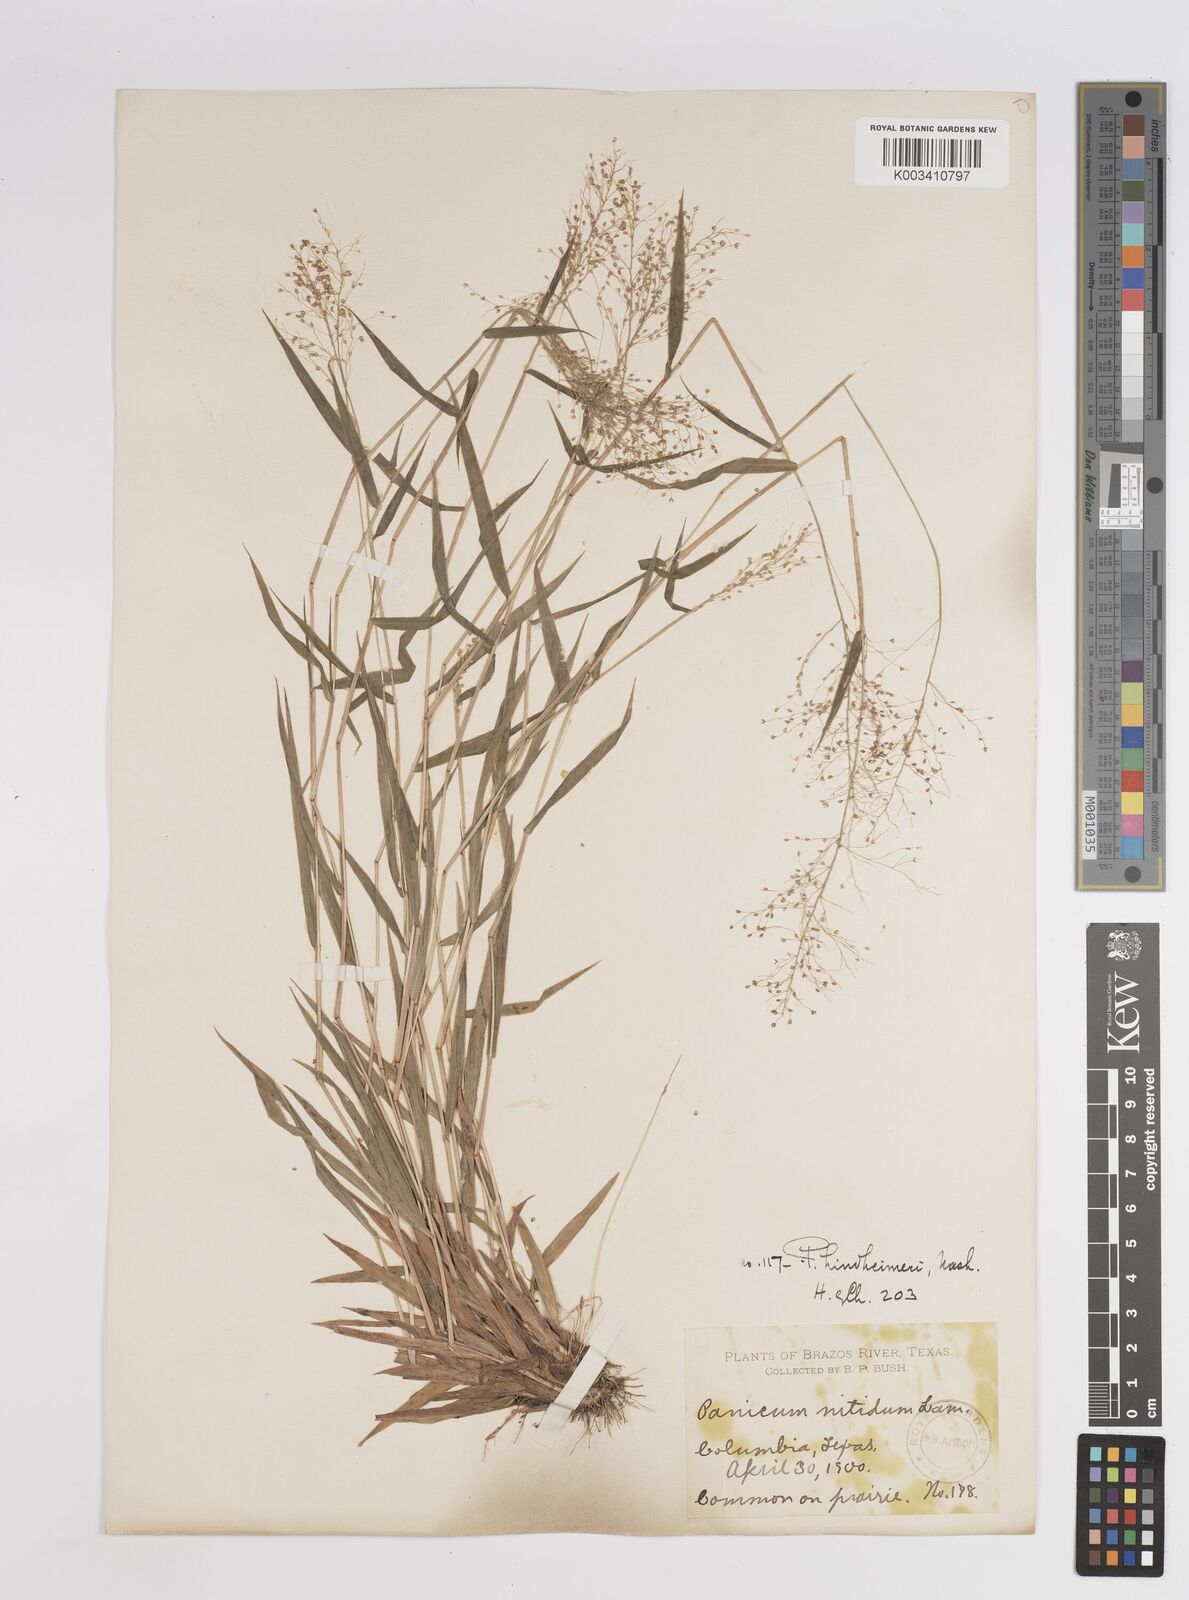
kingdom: Plantae
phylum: Tracheophyta
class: Liliopsida
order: Poales
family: Poaceae
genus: Dichanthelium
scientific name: Dichanthelium acuminatum
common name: Hairy panic grass
